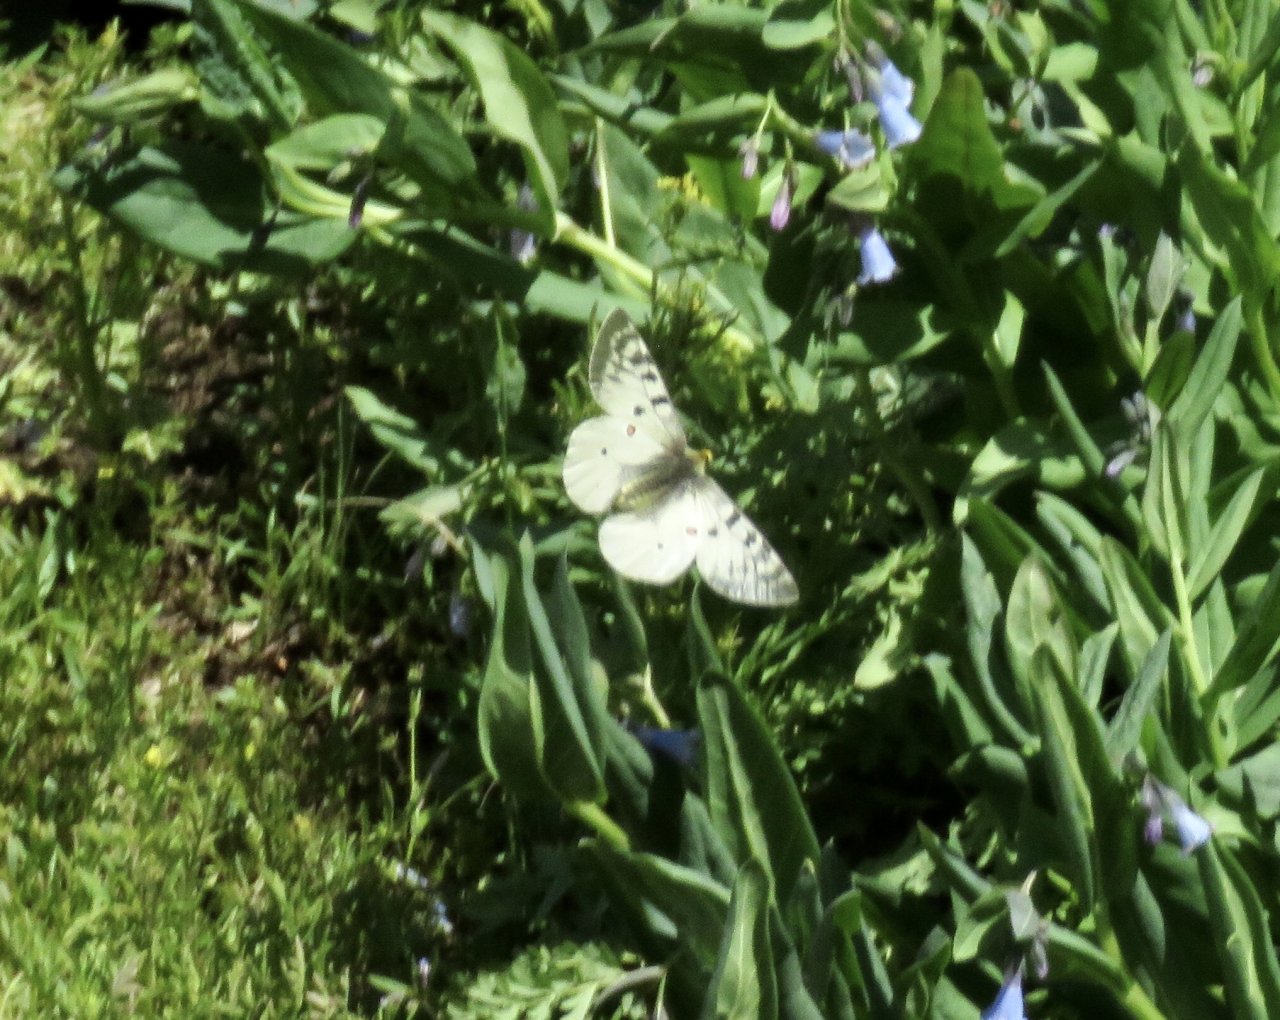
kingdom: Animalia
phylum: Arthropoda
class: Insecta
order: Lepidoptera
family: Papilionidae
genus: Parnassius
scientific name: Parnassius clodius
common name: Clodius Parnassian
